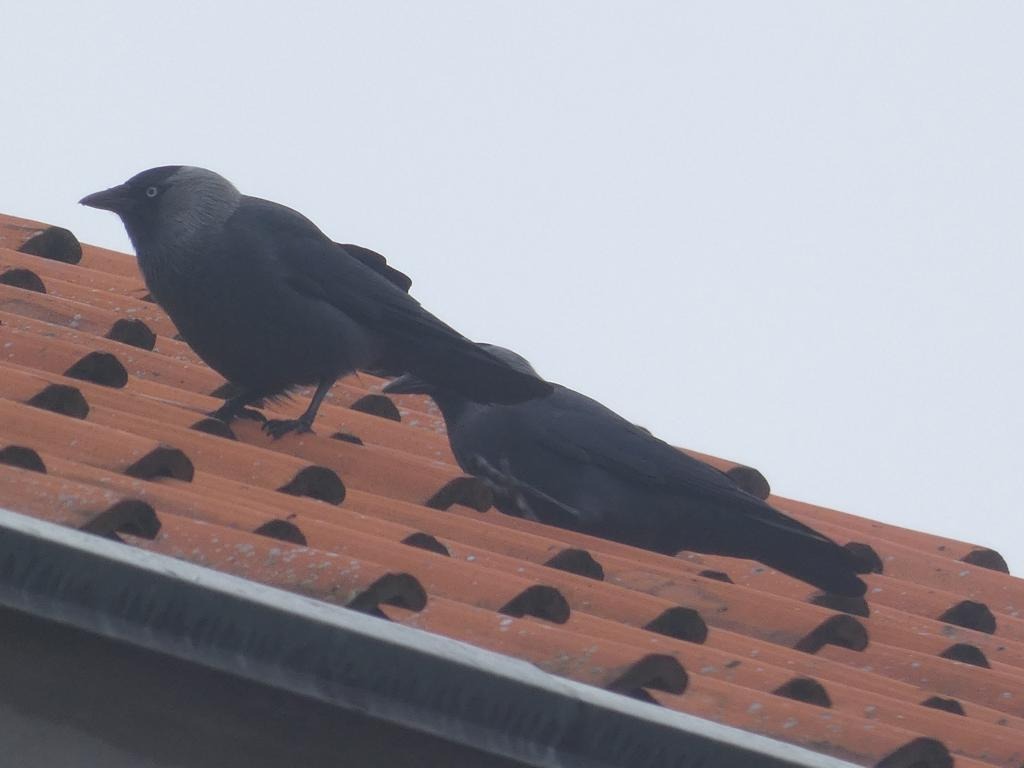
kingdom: Animalia
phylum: Chordata
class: Aves
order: Passeriformes
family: Corvidae
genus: Coloeus
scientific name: Coloeus monedula
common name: Allike
